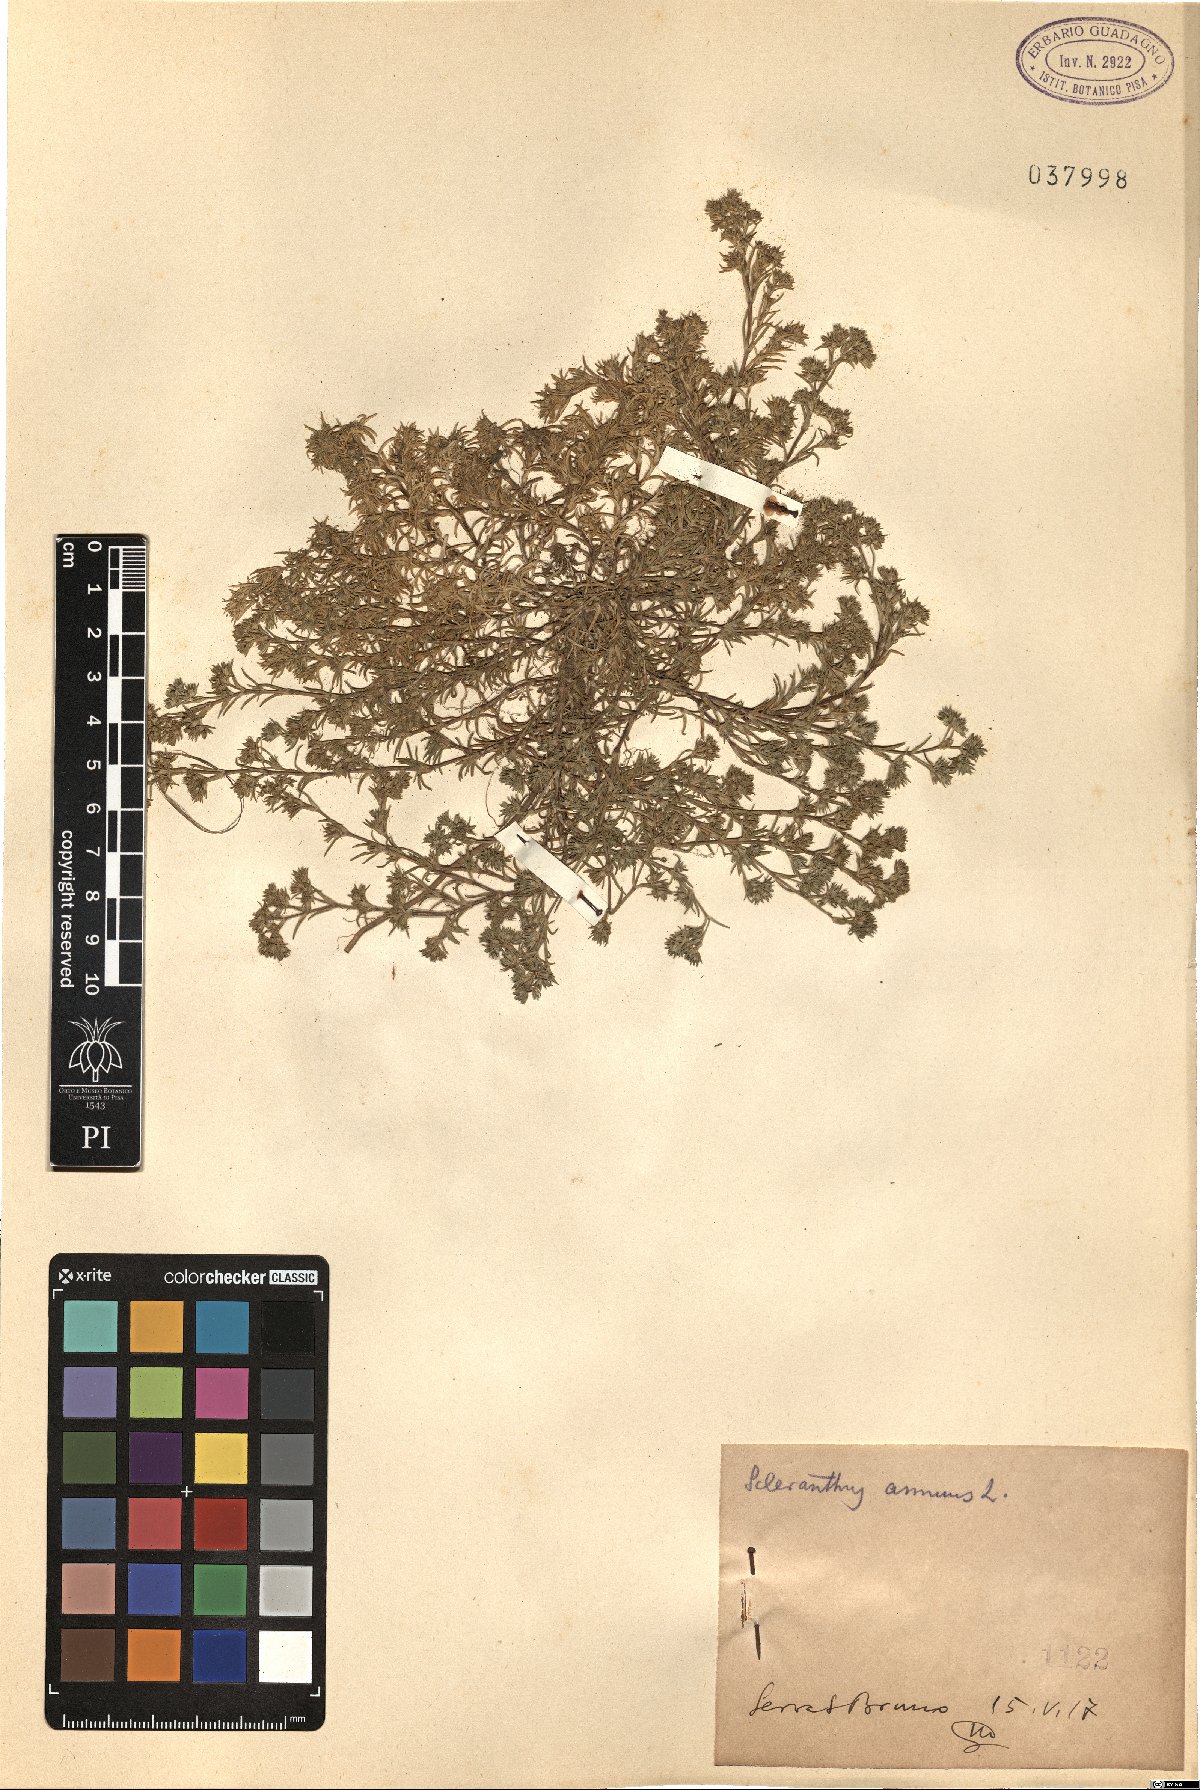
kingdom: Plantae
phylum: Tracheophyta
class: Magnoliopsida
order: Caryophyllales
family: Caryophyllaceae
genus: Scleranthus
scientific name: Scleranthus annuus
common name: Annual knawel
